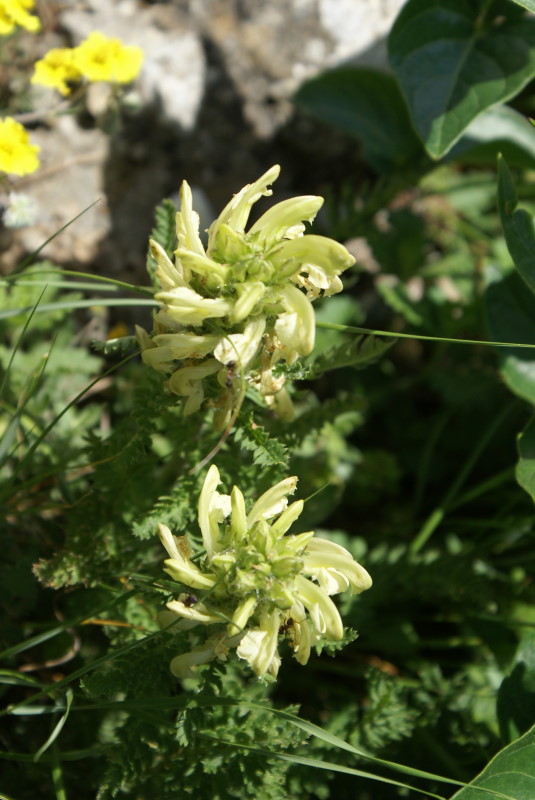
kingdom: Plantae
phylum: Tracheophyta
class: Magnoliopsida
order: Lamiales
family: Orobanchaceae
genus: Pedicularis
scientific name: Pedicularis sibthorpii
